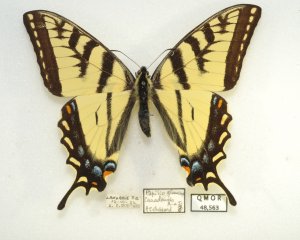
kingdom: Animalia
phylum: Arthropoda
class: Insecta
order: Lepidoptera
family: Papilionidae
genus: Pterourus
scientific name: Pterourus canadensis
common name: Canadian Tiger Swallowtail
